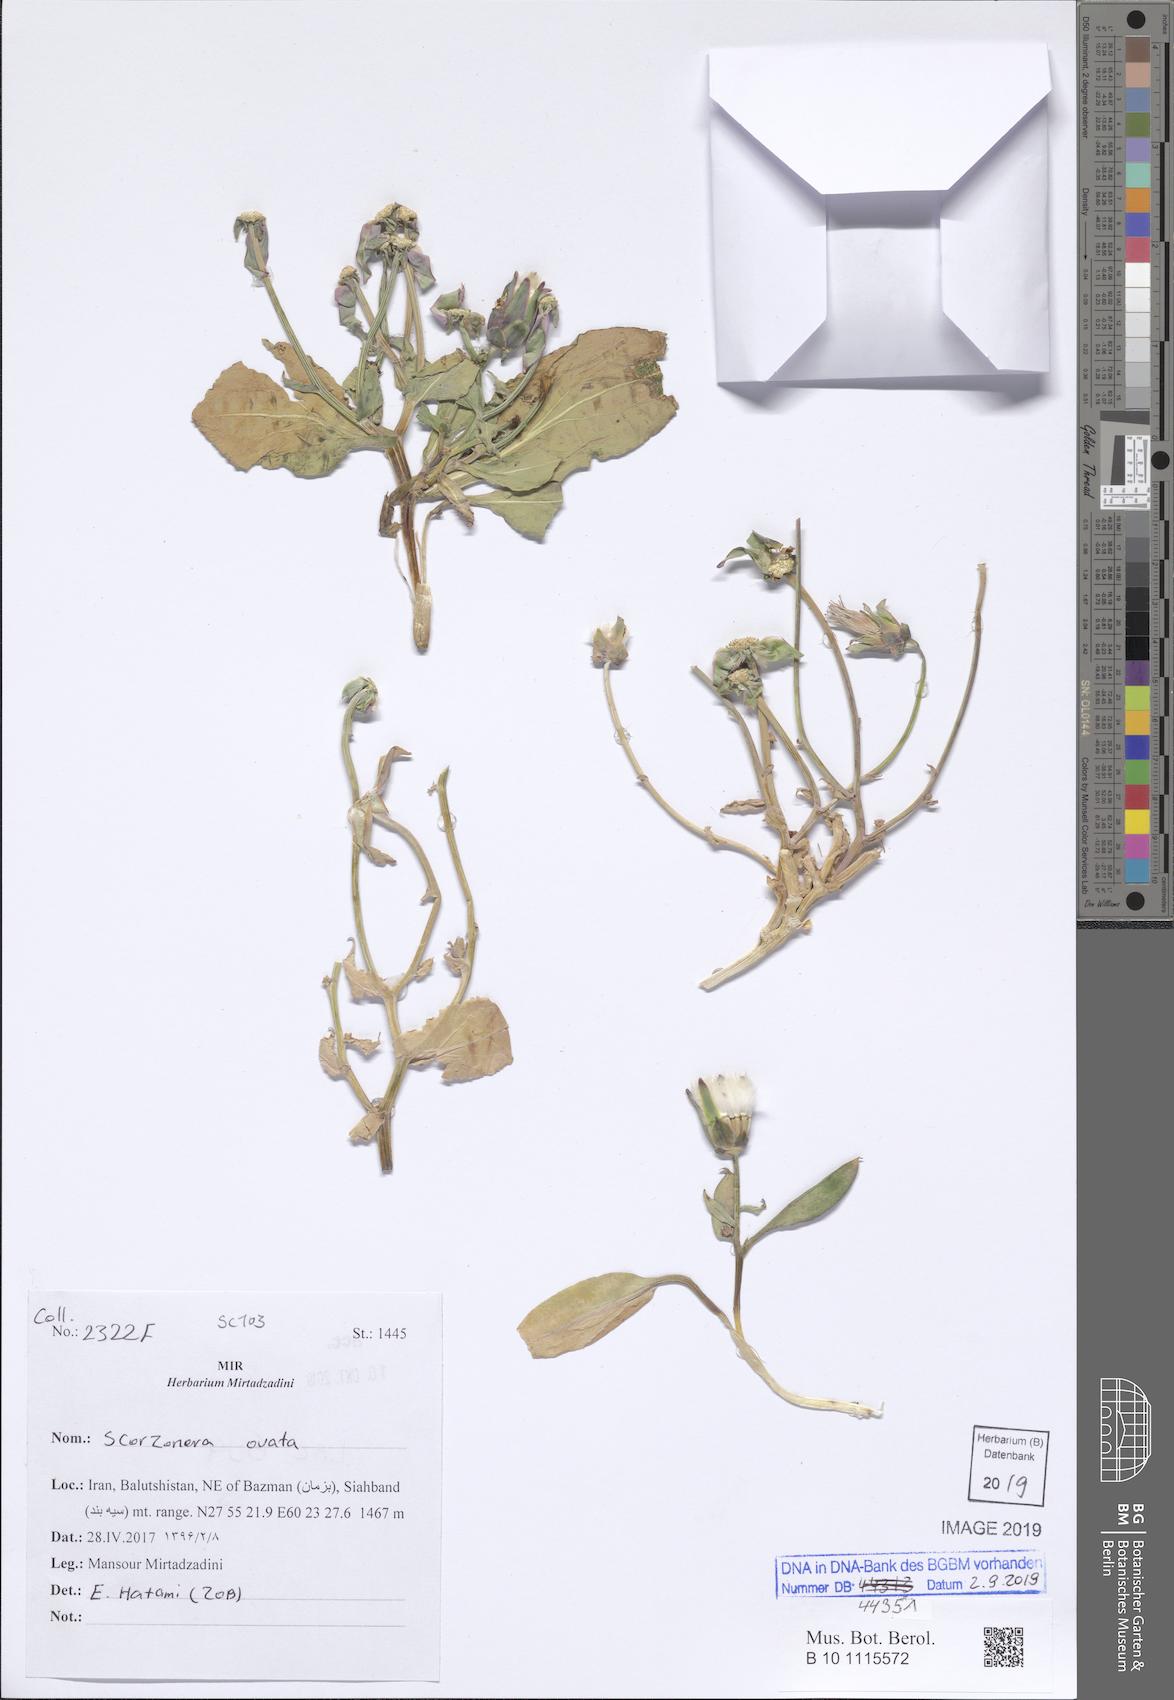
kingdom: Plantae
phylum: Tracheophyta
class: Magnoliopsida
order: Asterales
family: Asteraceae
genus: Pseudopodospermum
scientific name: Pseudopodospermum ovatum
